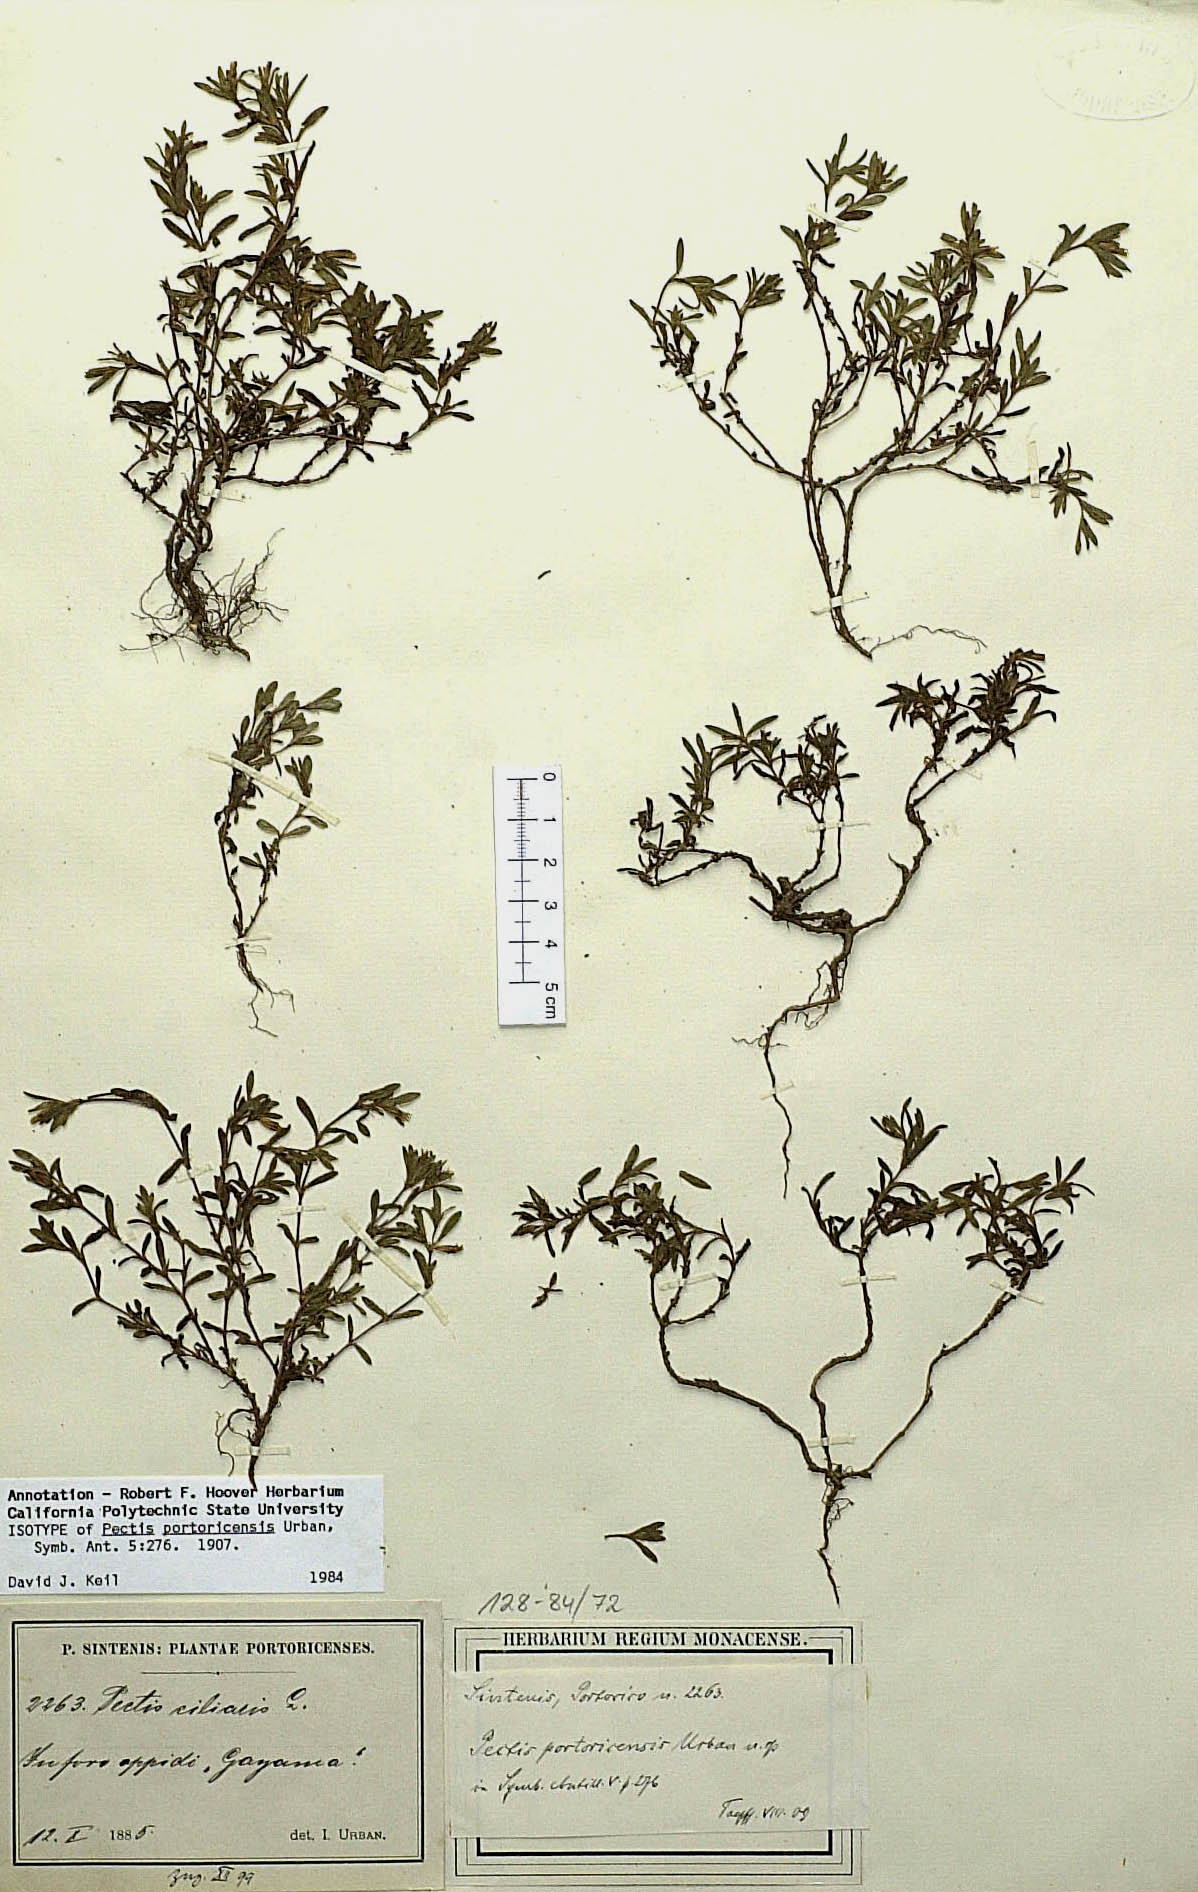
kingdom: Plantae
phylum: Tracheophyta
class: Magnoliopsida
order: Asterales
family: Asteraceae
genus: Pectis
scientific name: Pectis prostrata
